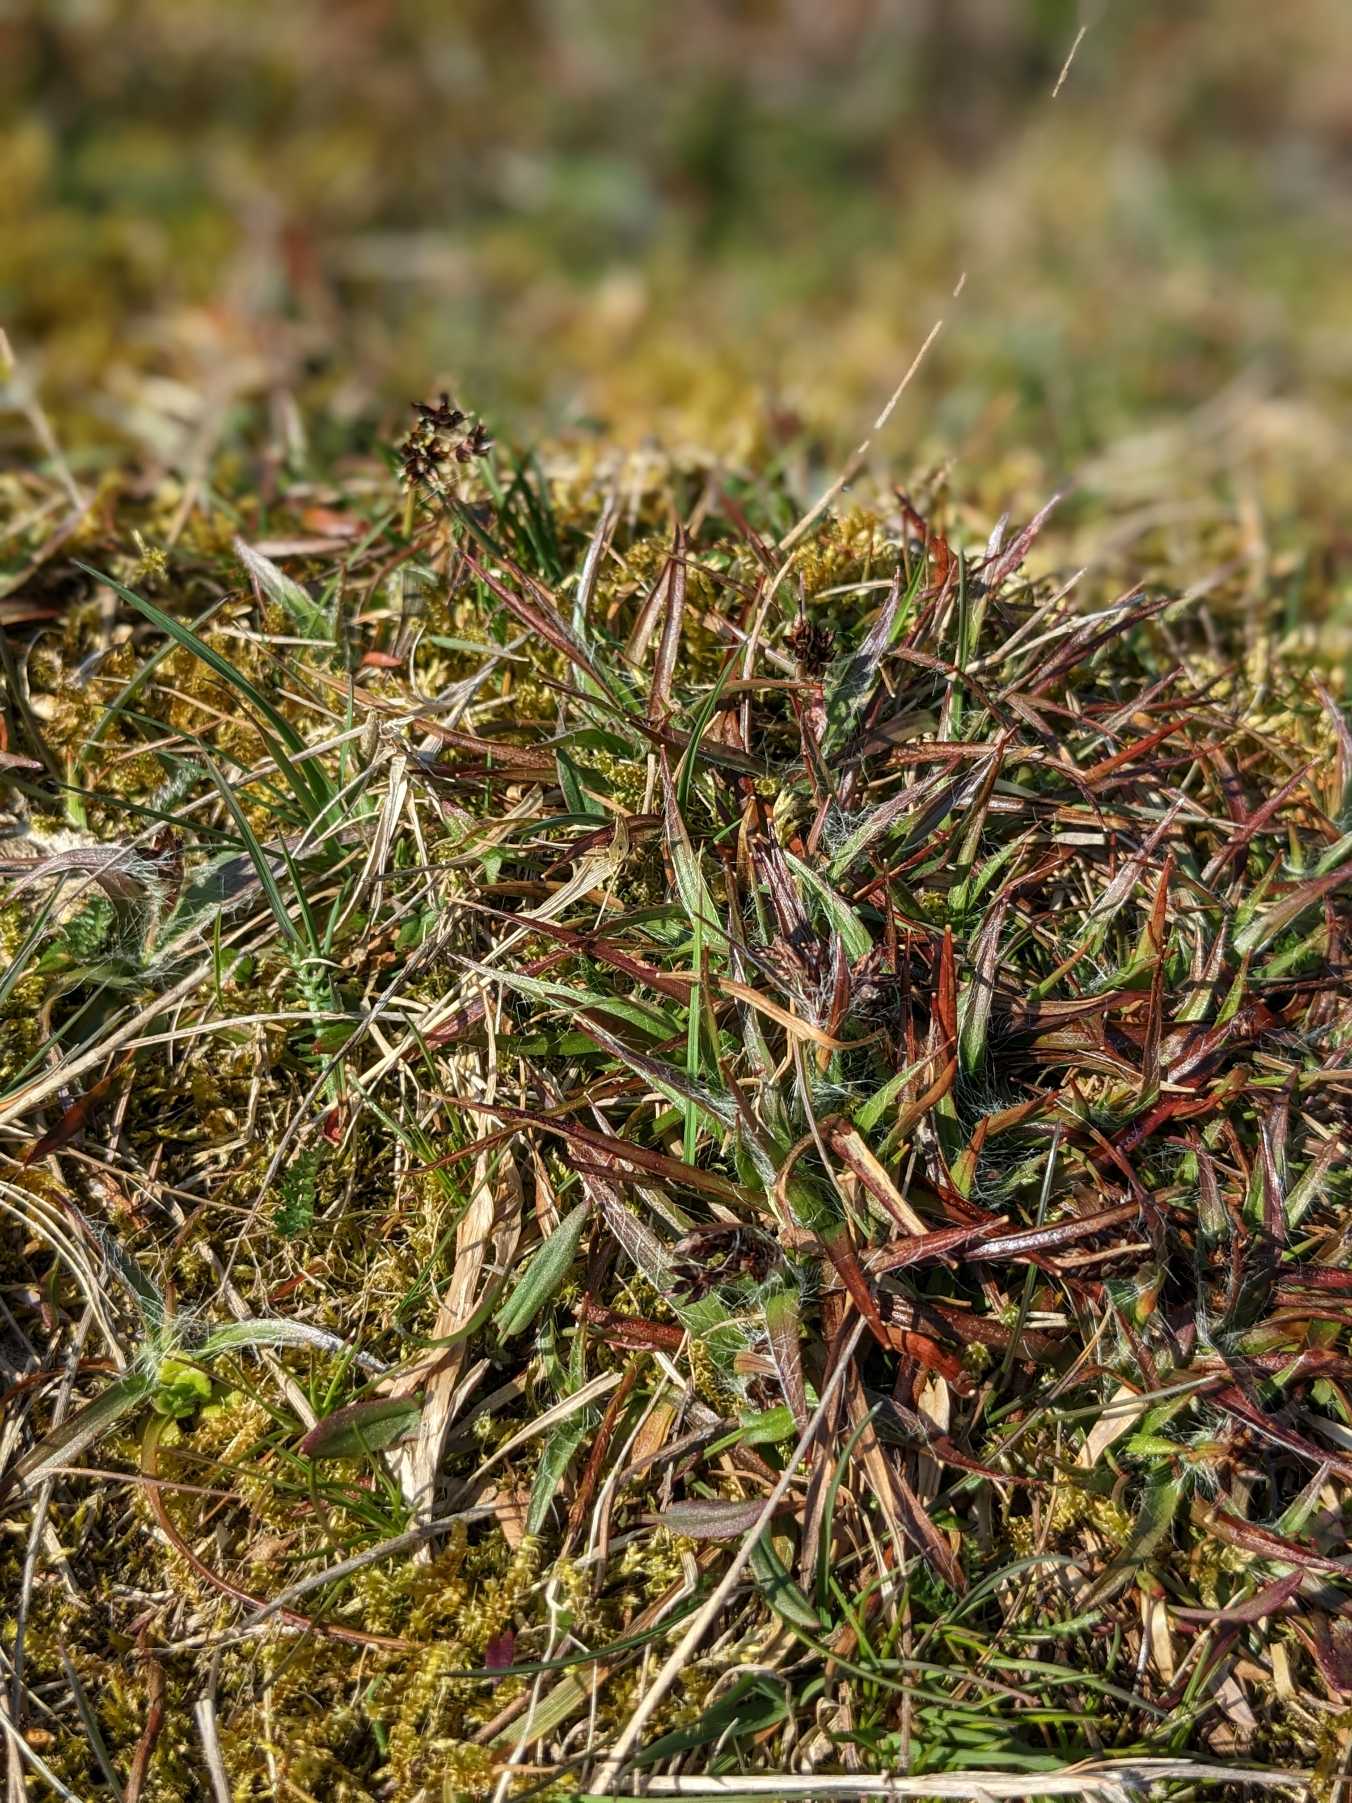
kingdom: Plantae
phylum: Tracheophyta
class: Liliopsida
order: Poales
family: Juncaceae
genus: Luzula
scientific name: Luzula campestris
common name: Mark-frytle
